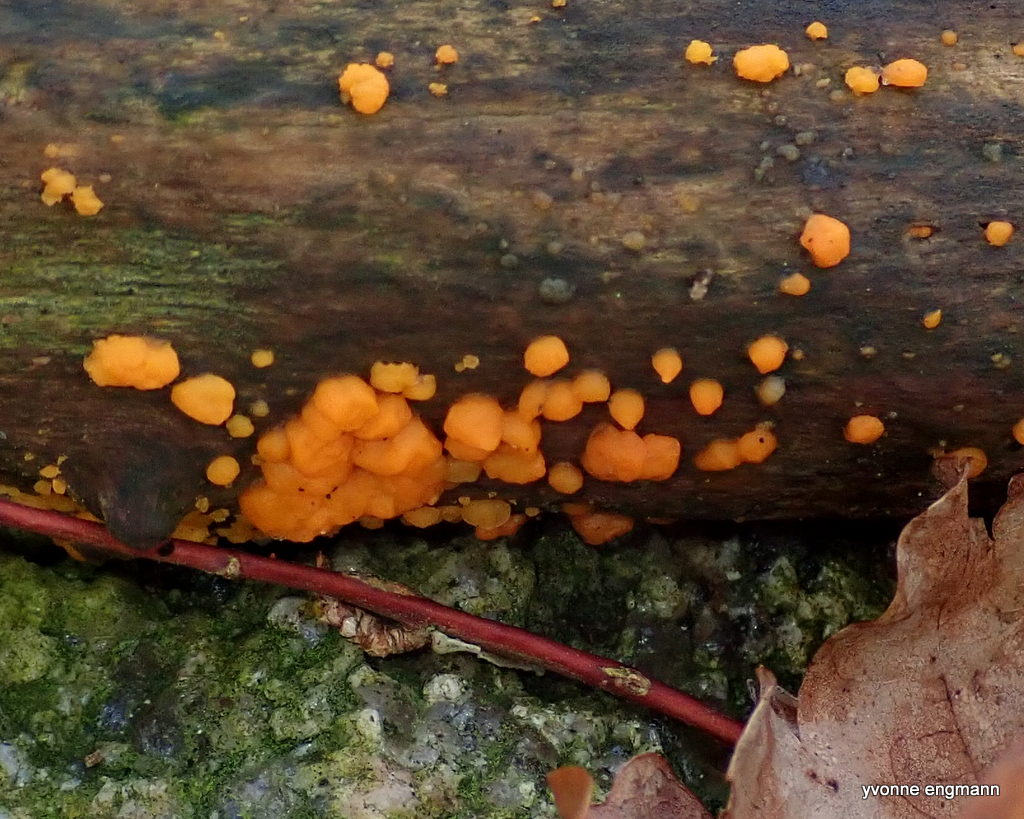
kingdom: Fungi
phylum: Basidiomycota
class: Dacrymycetes
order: Dacrymycetales
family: Dacrymycetaceae
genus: Dacrymyces
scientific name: Dacrymyces stillatus
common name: almindelig tåresvamp
